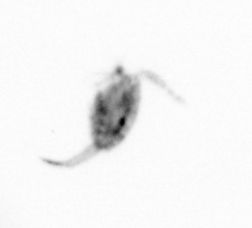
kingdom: Animalia
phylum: Arthropoda
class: Copepoda
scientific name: Copepoda
